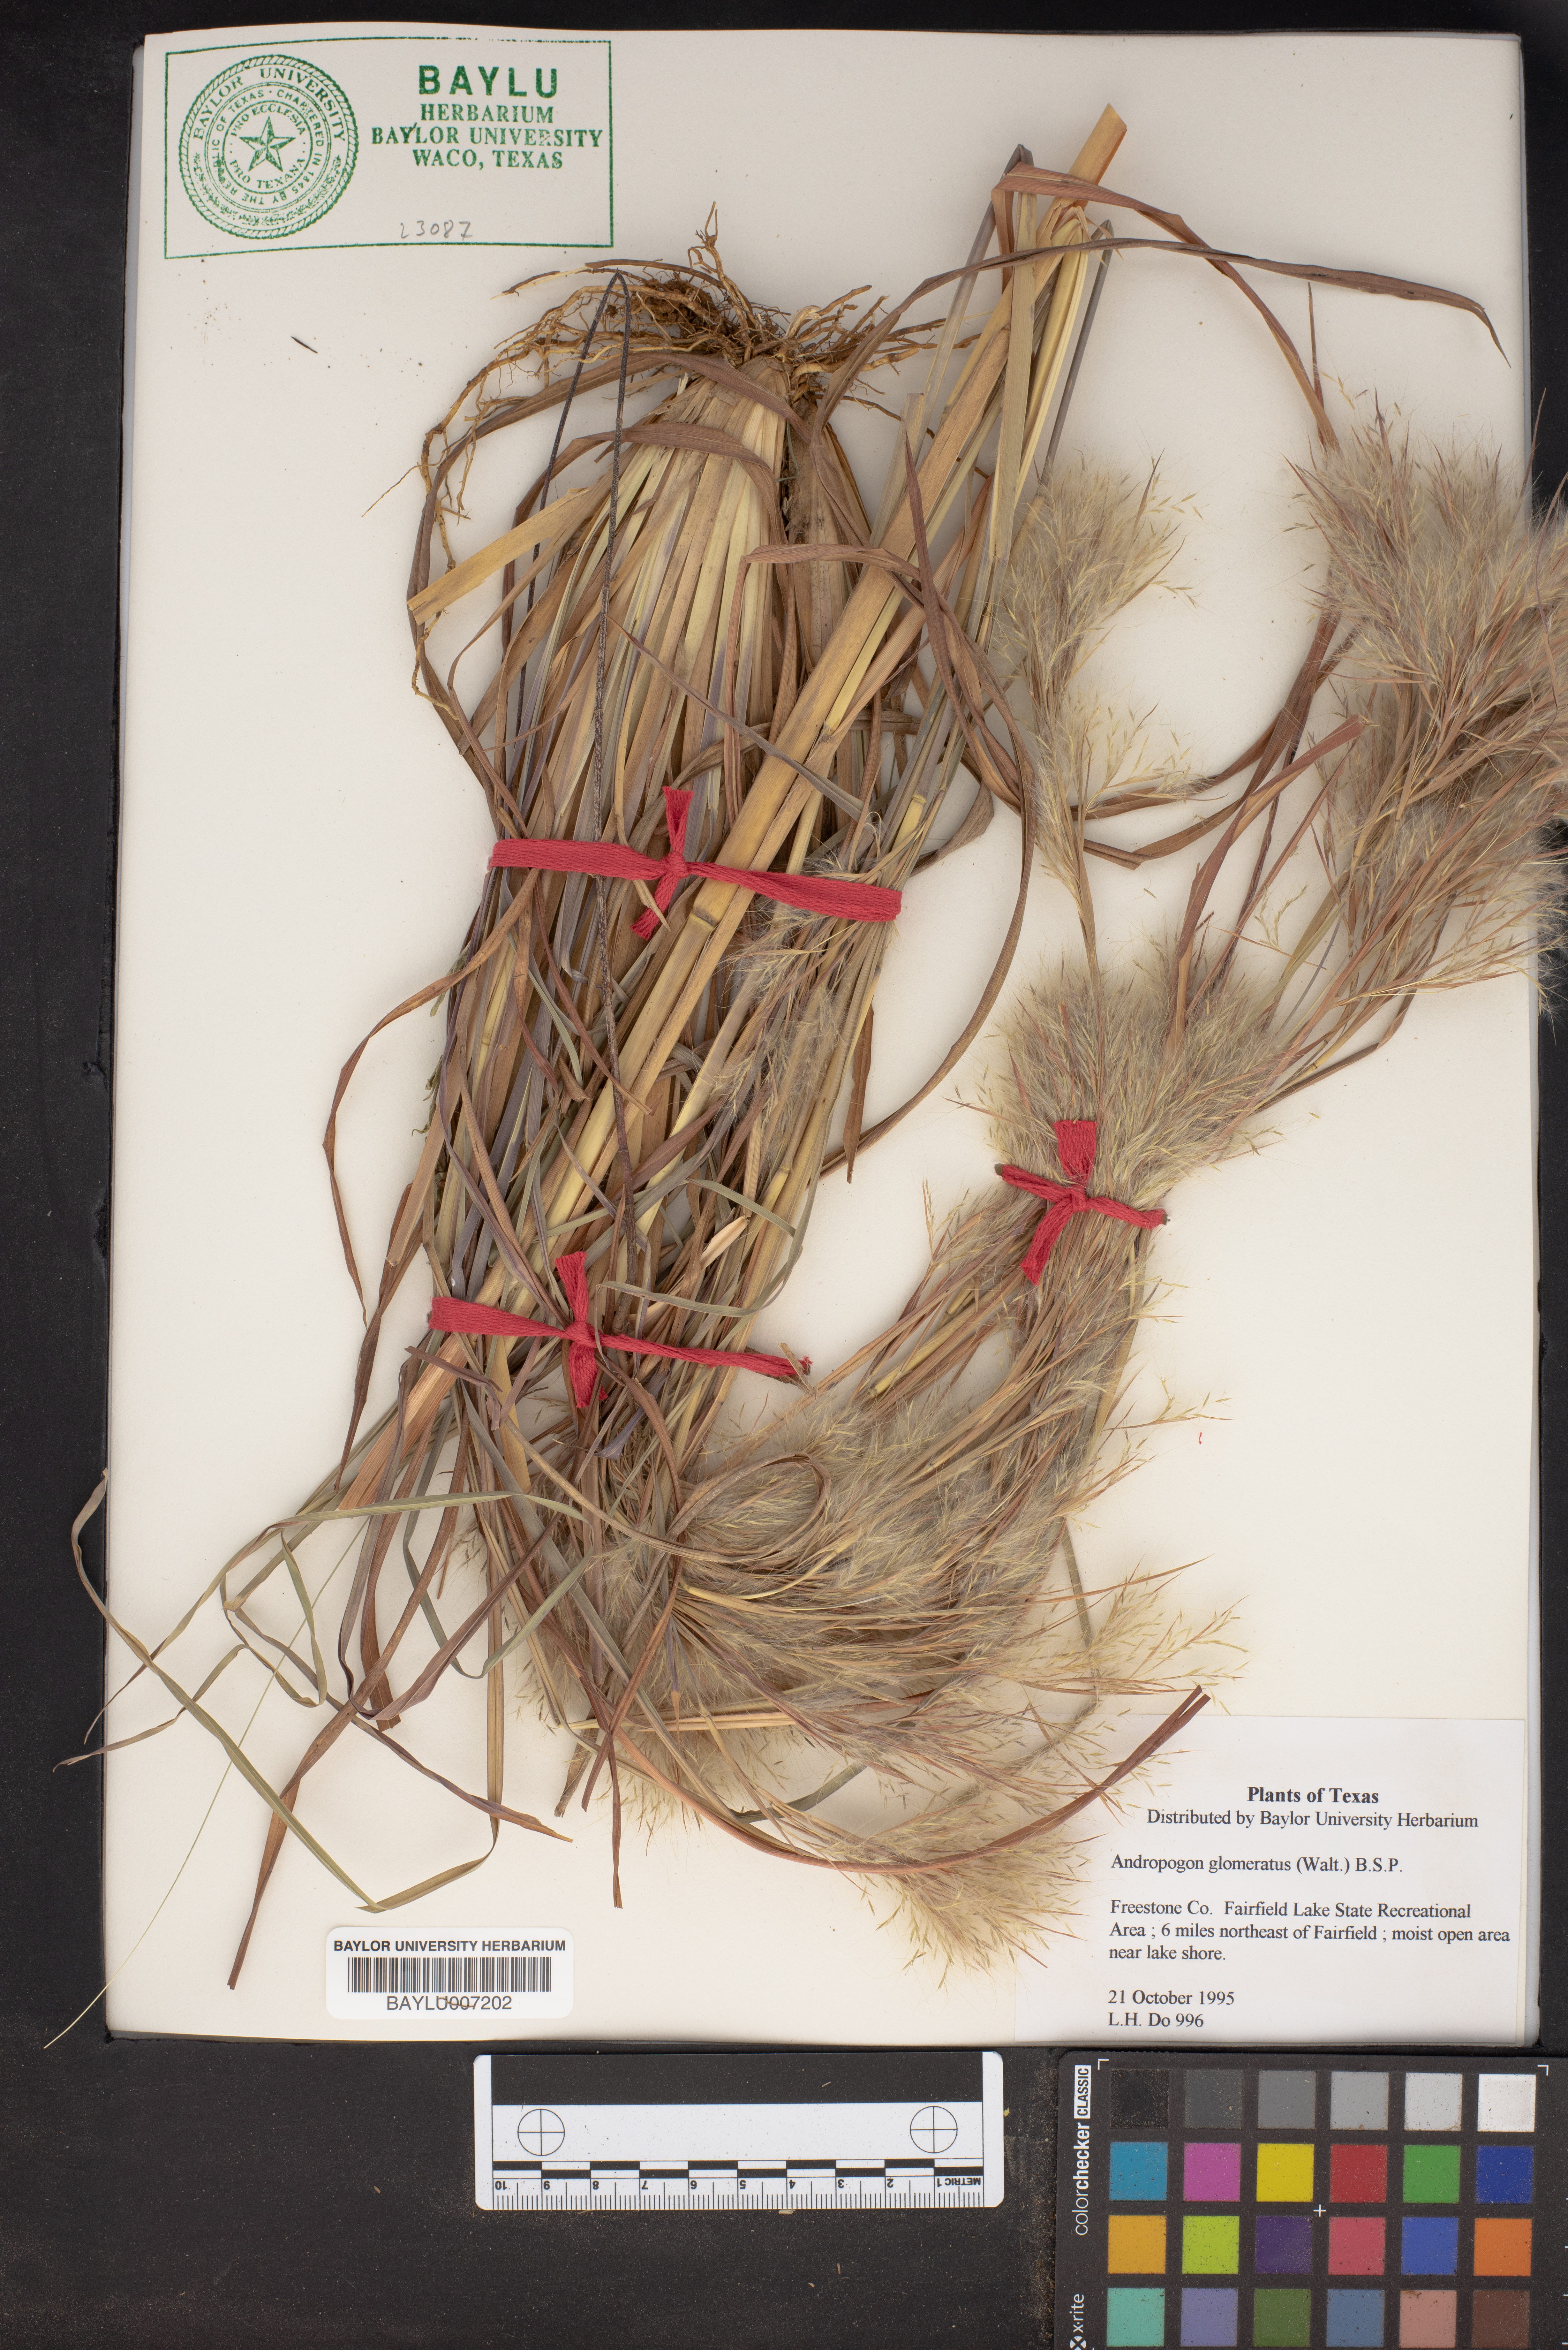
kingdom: Plantae
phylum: Tracheophyta
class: Liliopsida
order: Poales
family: Poaceae
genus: Andropogon
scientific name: Andropogon glomeratus
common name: Bushy beard grass
